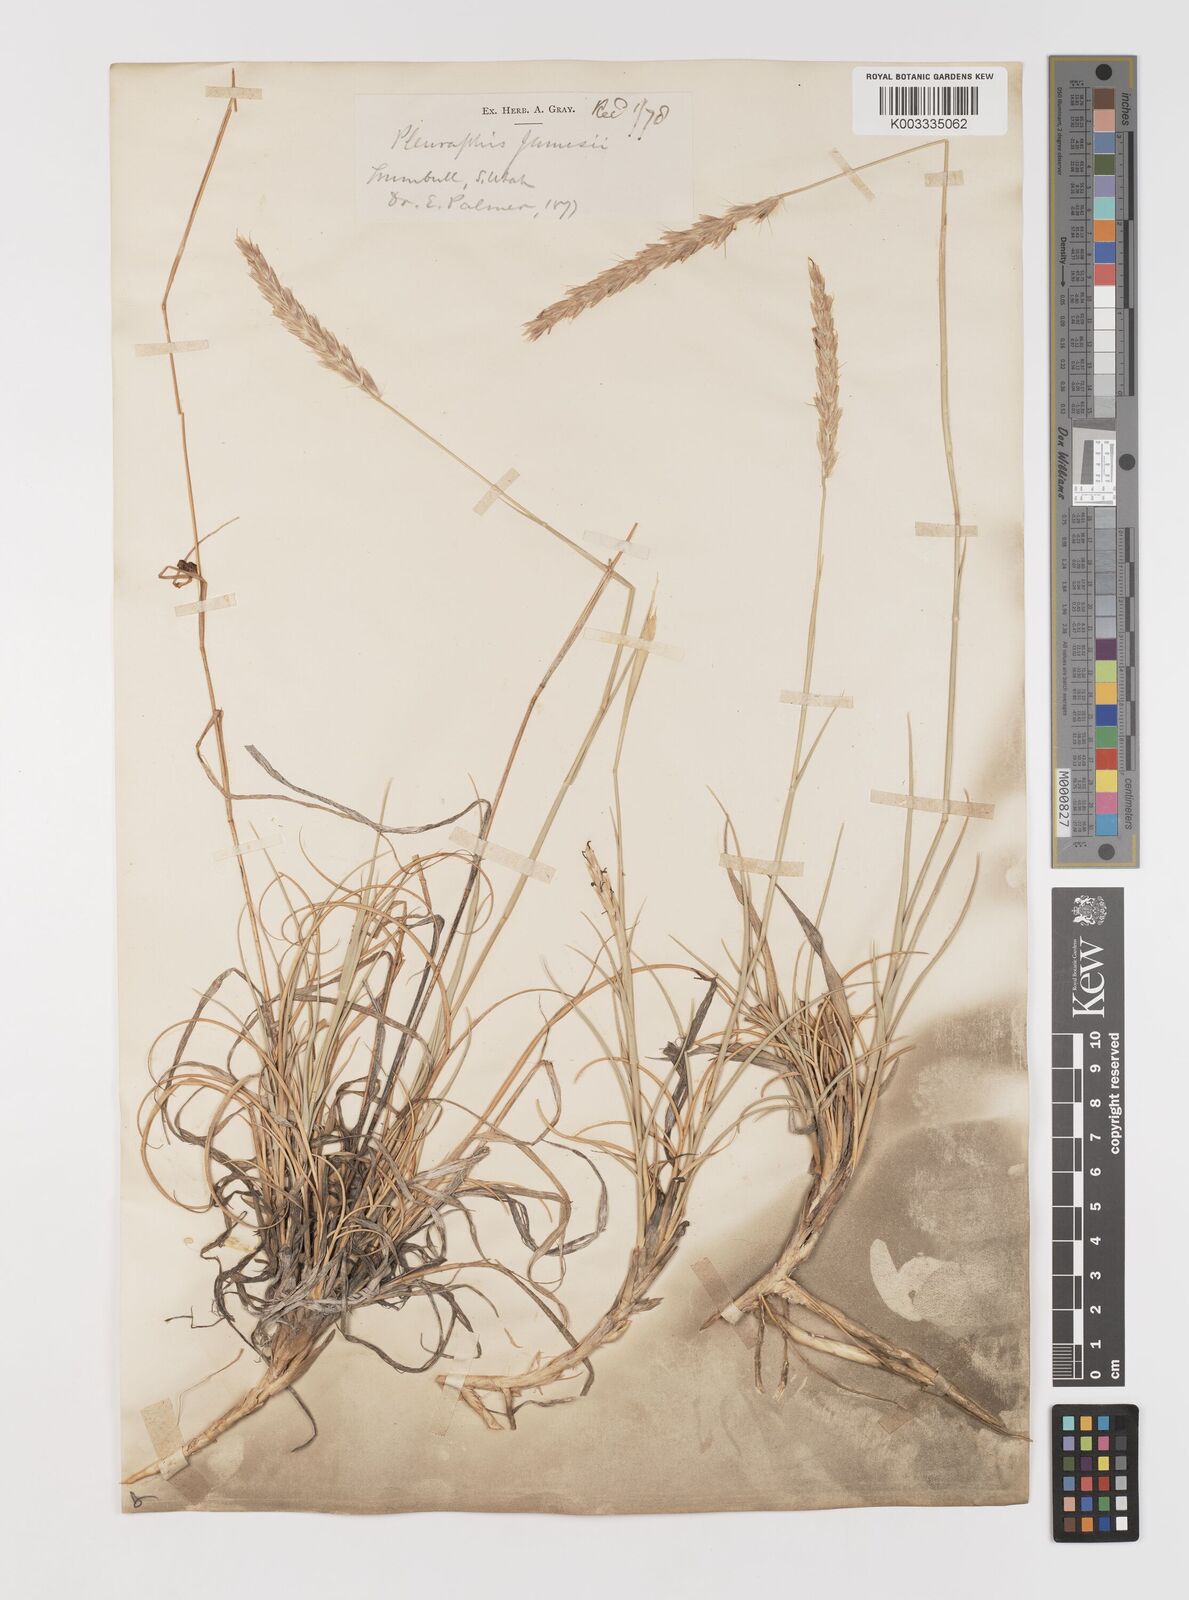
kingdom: Plantae
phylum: Tracheophyta
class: Liliopsida
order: Poales
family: Poaceae
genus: Hilaria
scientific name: Hilaria jamesii
